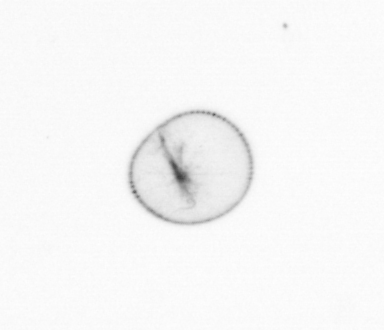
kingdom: Chromista
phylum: Myzozoa
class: Dinophyceae
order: Noctilucales
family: Noctilucaceae
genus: Noctiluca
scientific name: Noctiluca scintillans
